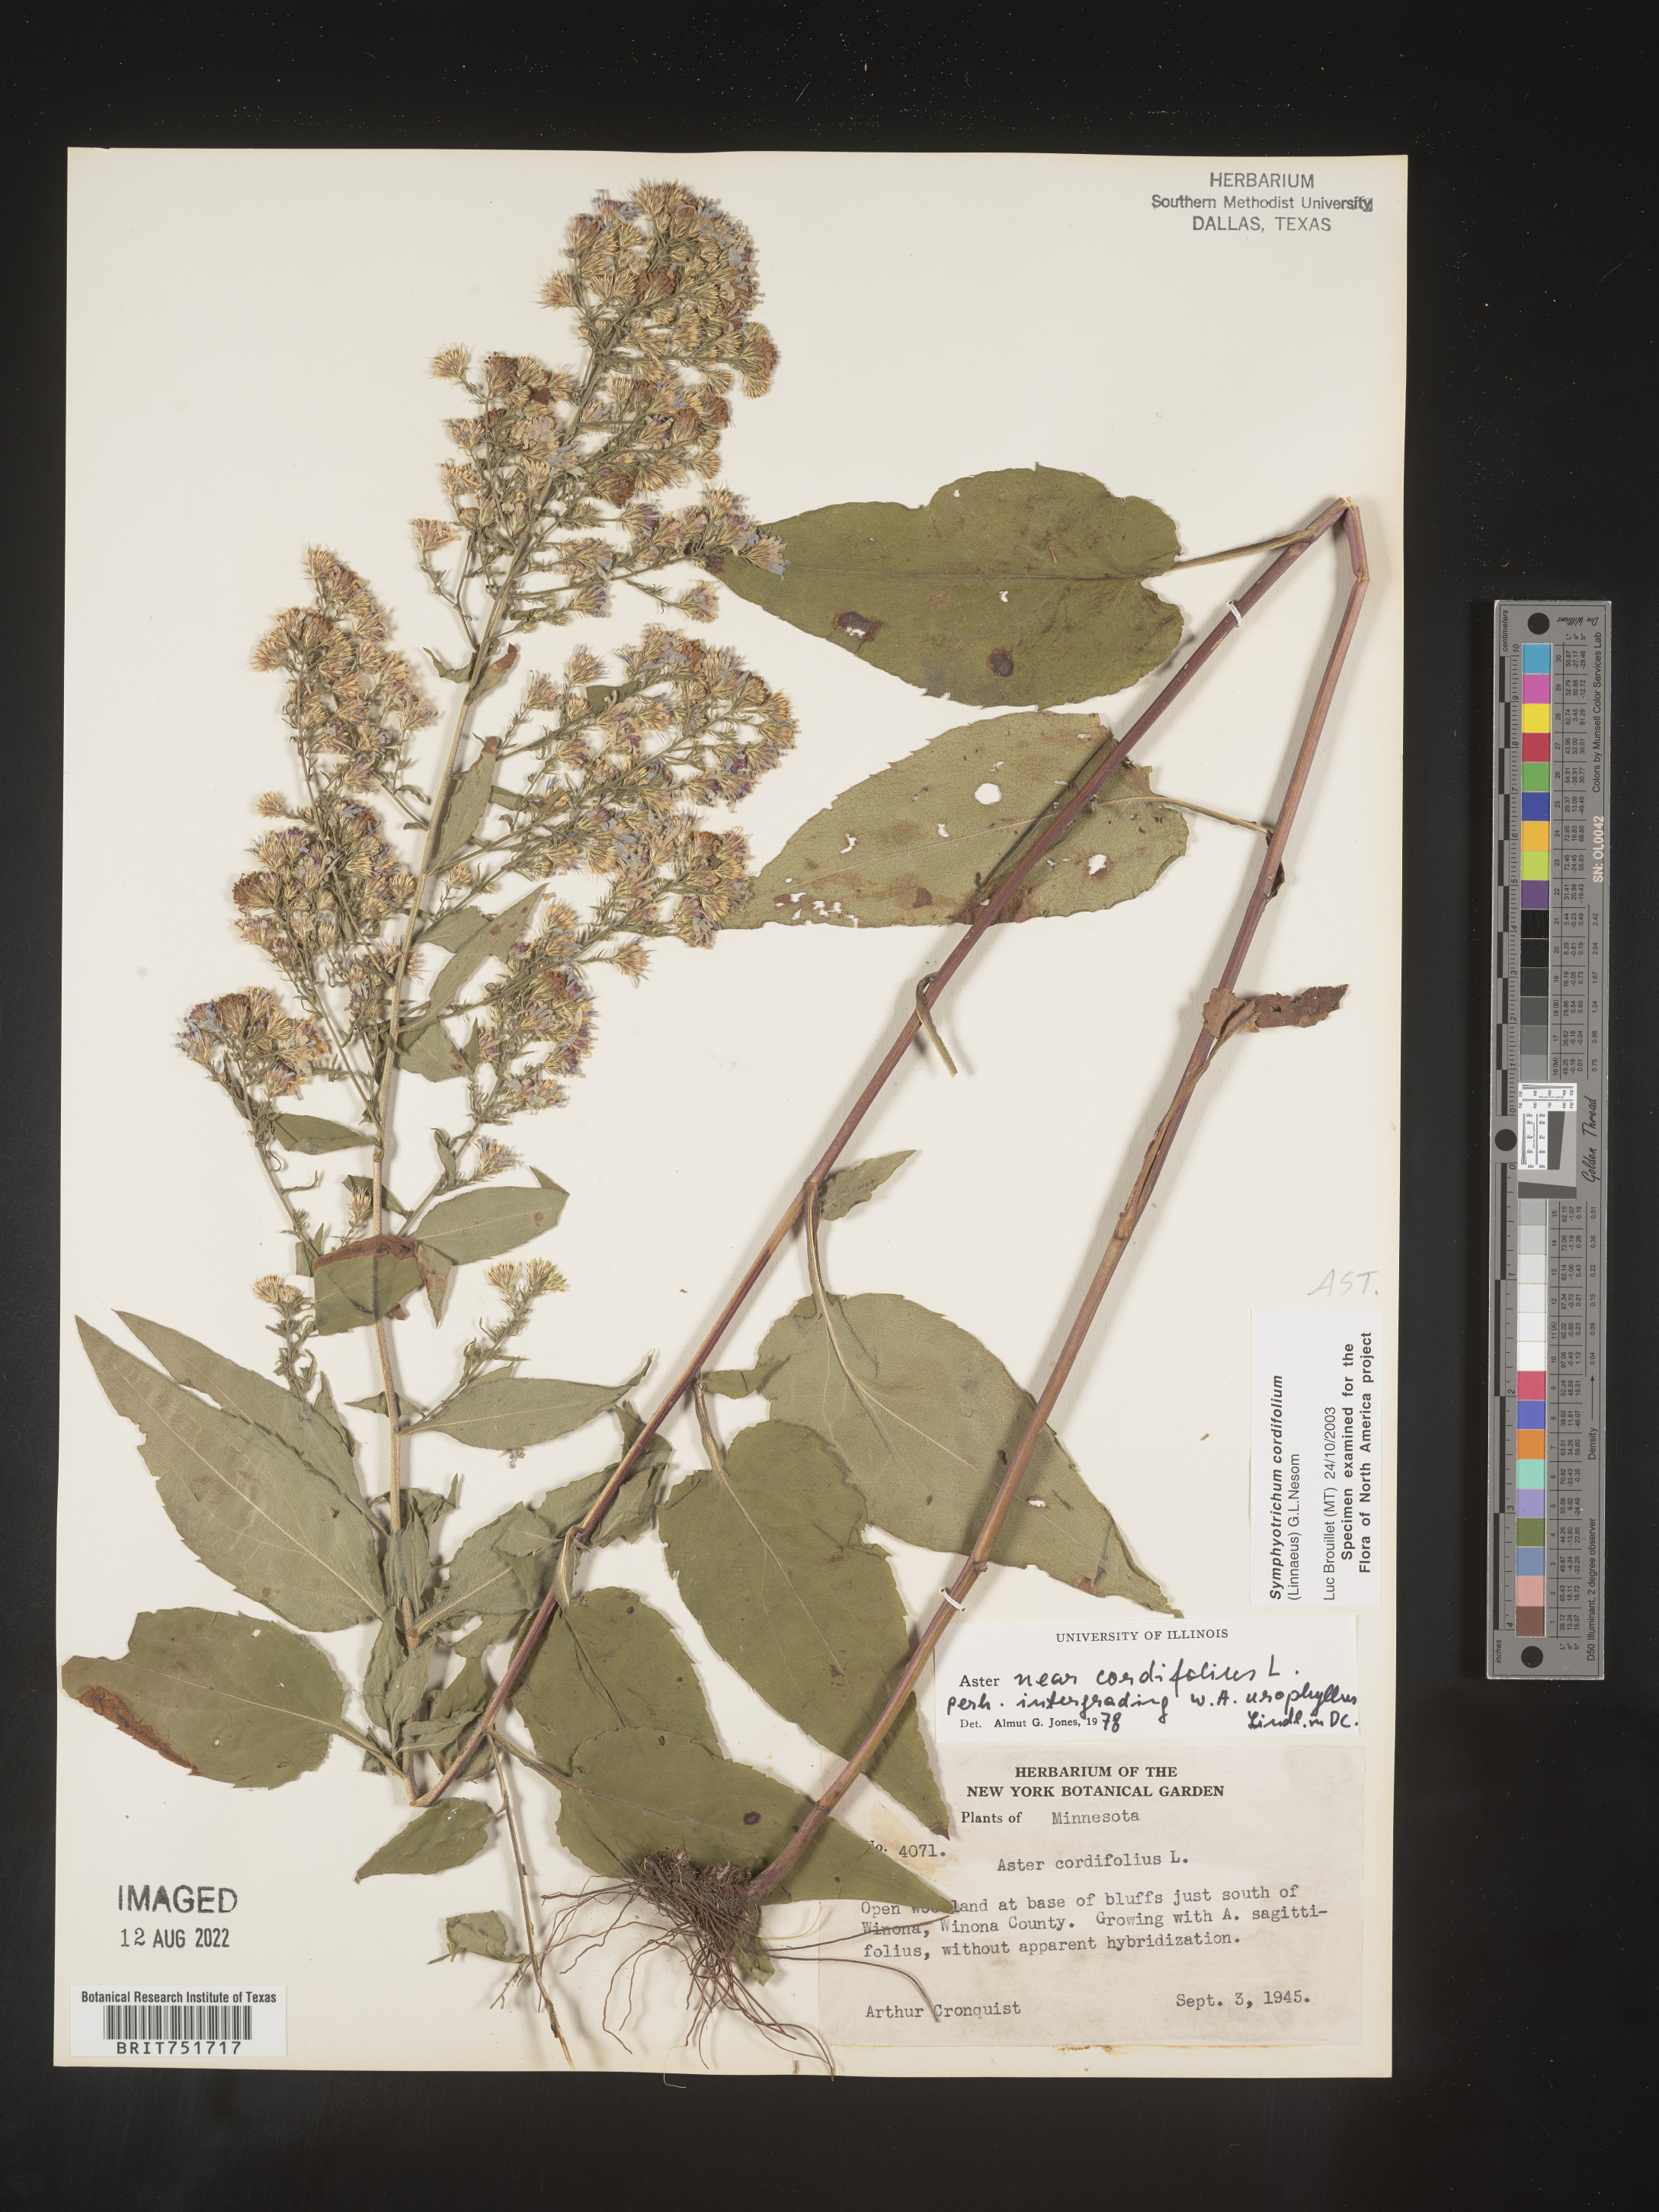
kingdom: Plantae
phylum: Tracheophyta
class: Magnoliopsida
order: Asterales
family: Asteraceae
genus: Symphyotrichum
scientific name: Symphyotrichum cordifolium
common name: Beeweed
